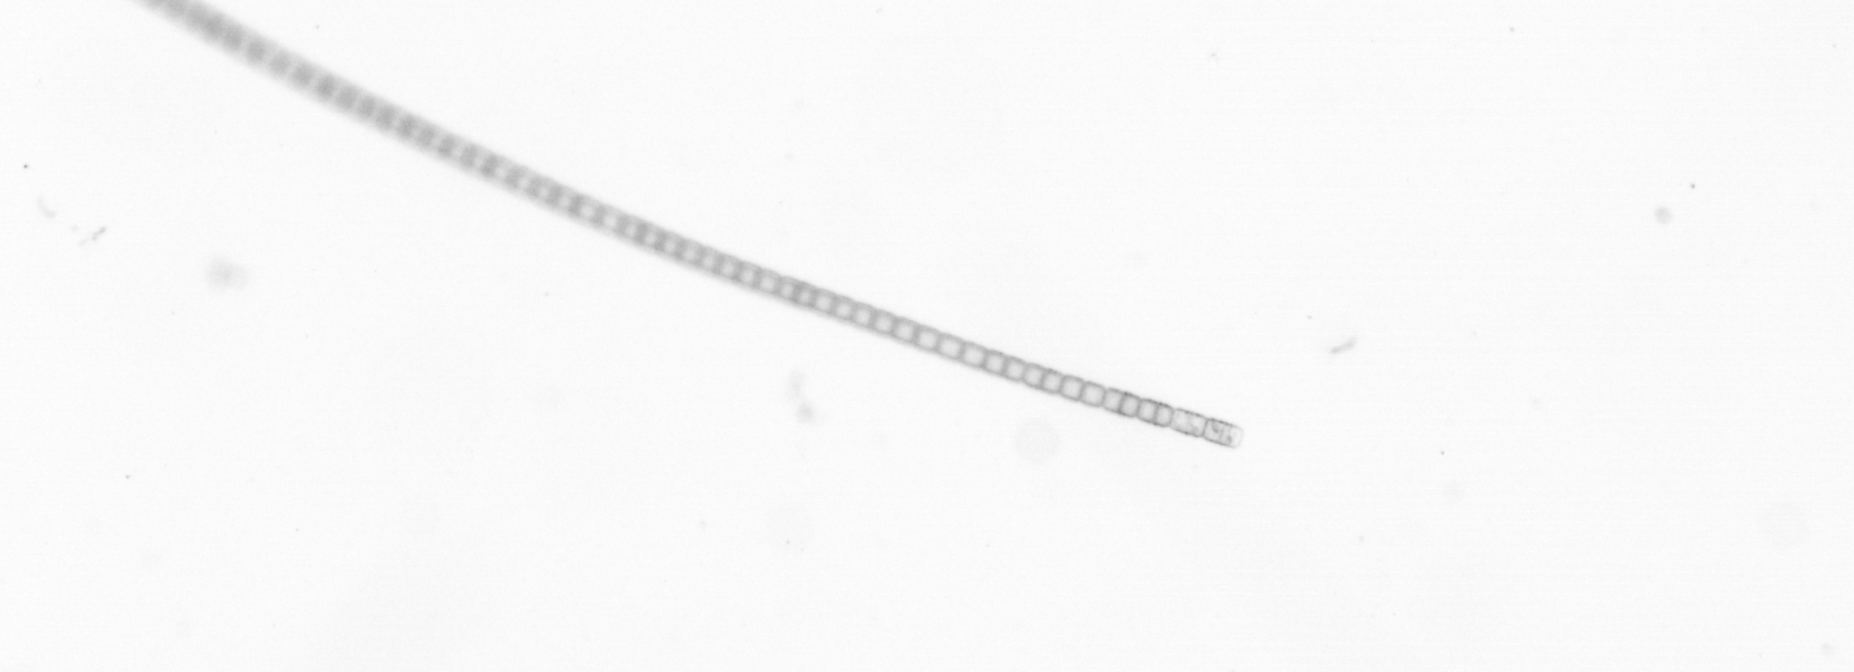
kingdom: Chromista
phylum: Ochrophyta
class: Bacillariophyceae
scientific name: Bacillariophyceae
